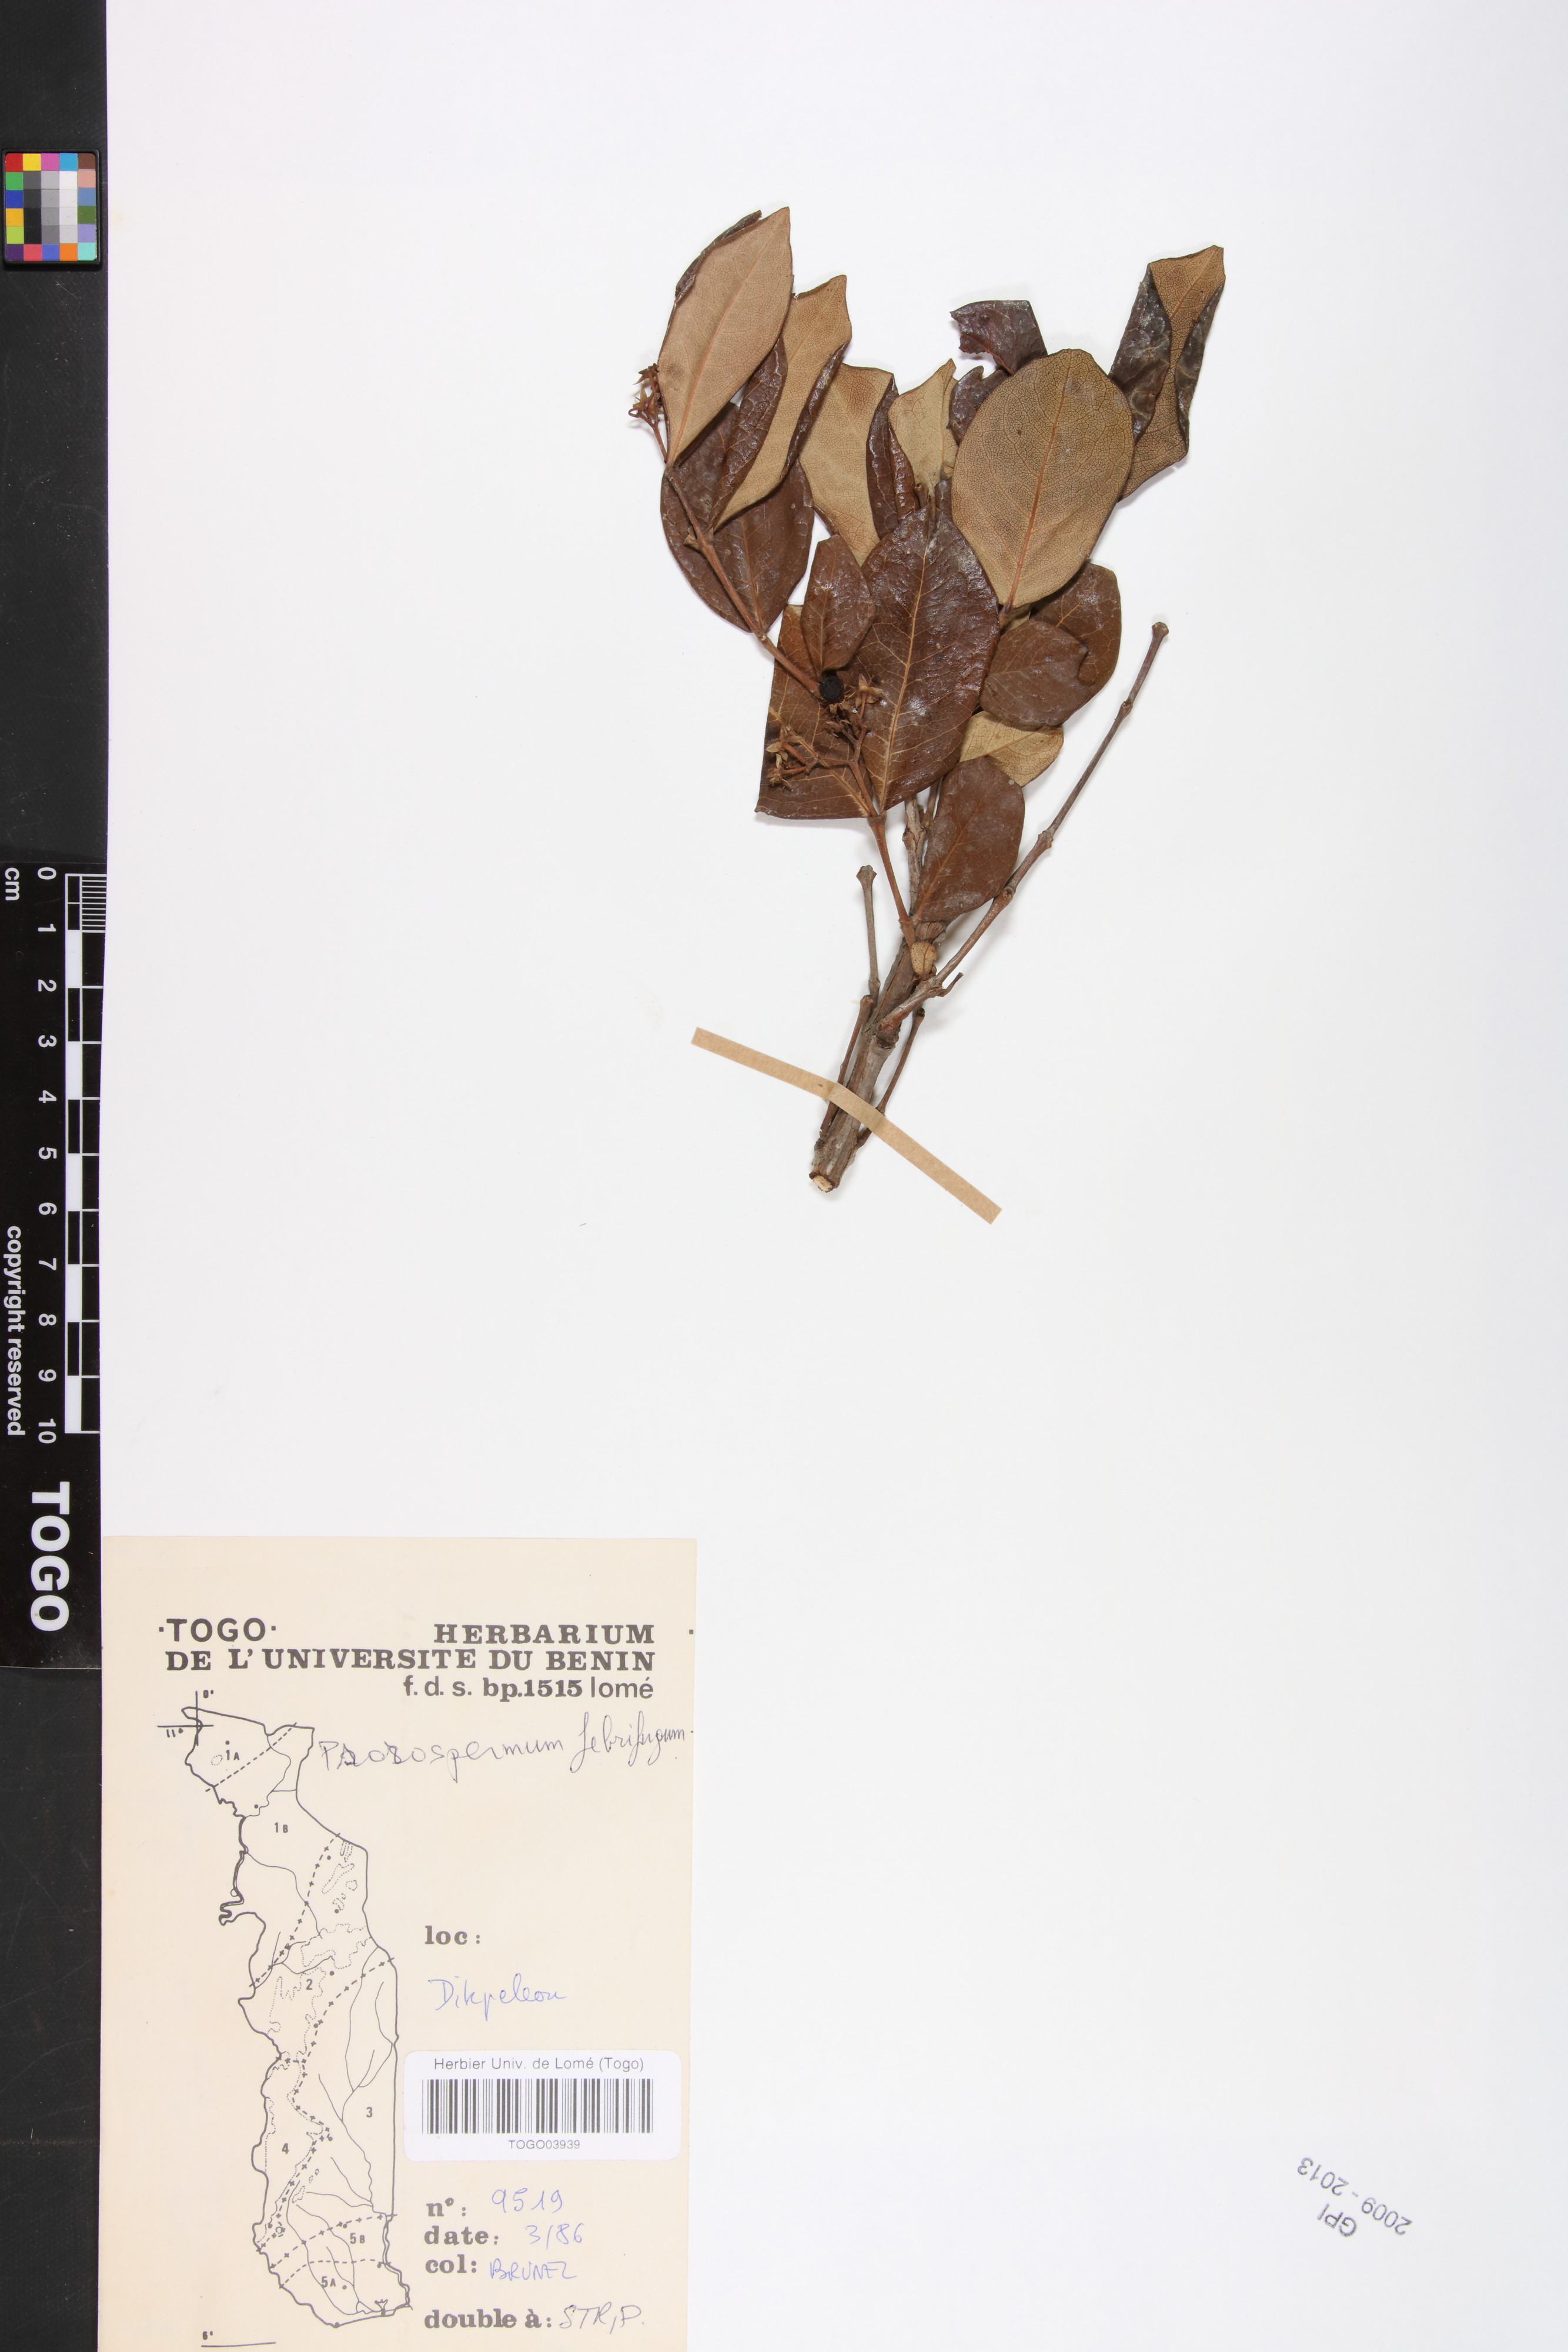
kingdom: Plantae
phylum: Tracheophyta
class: Magnoliopsida
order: Malpighiales
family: Hypericaceae
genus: Psorospermum
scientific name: Psorospermum febrifugum
